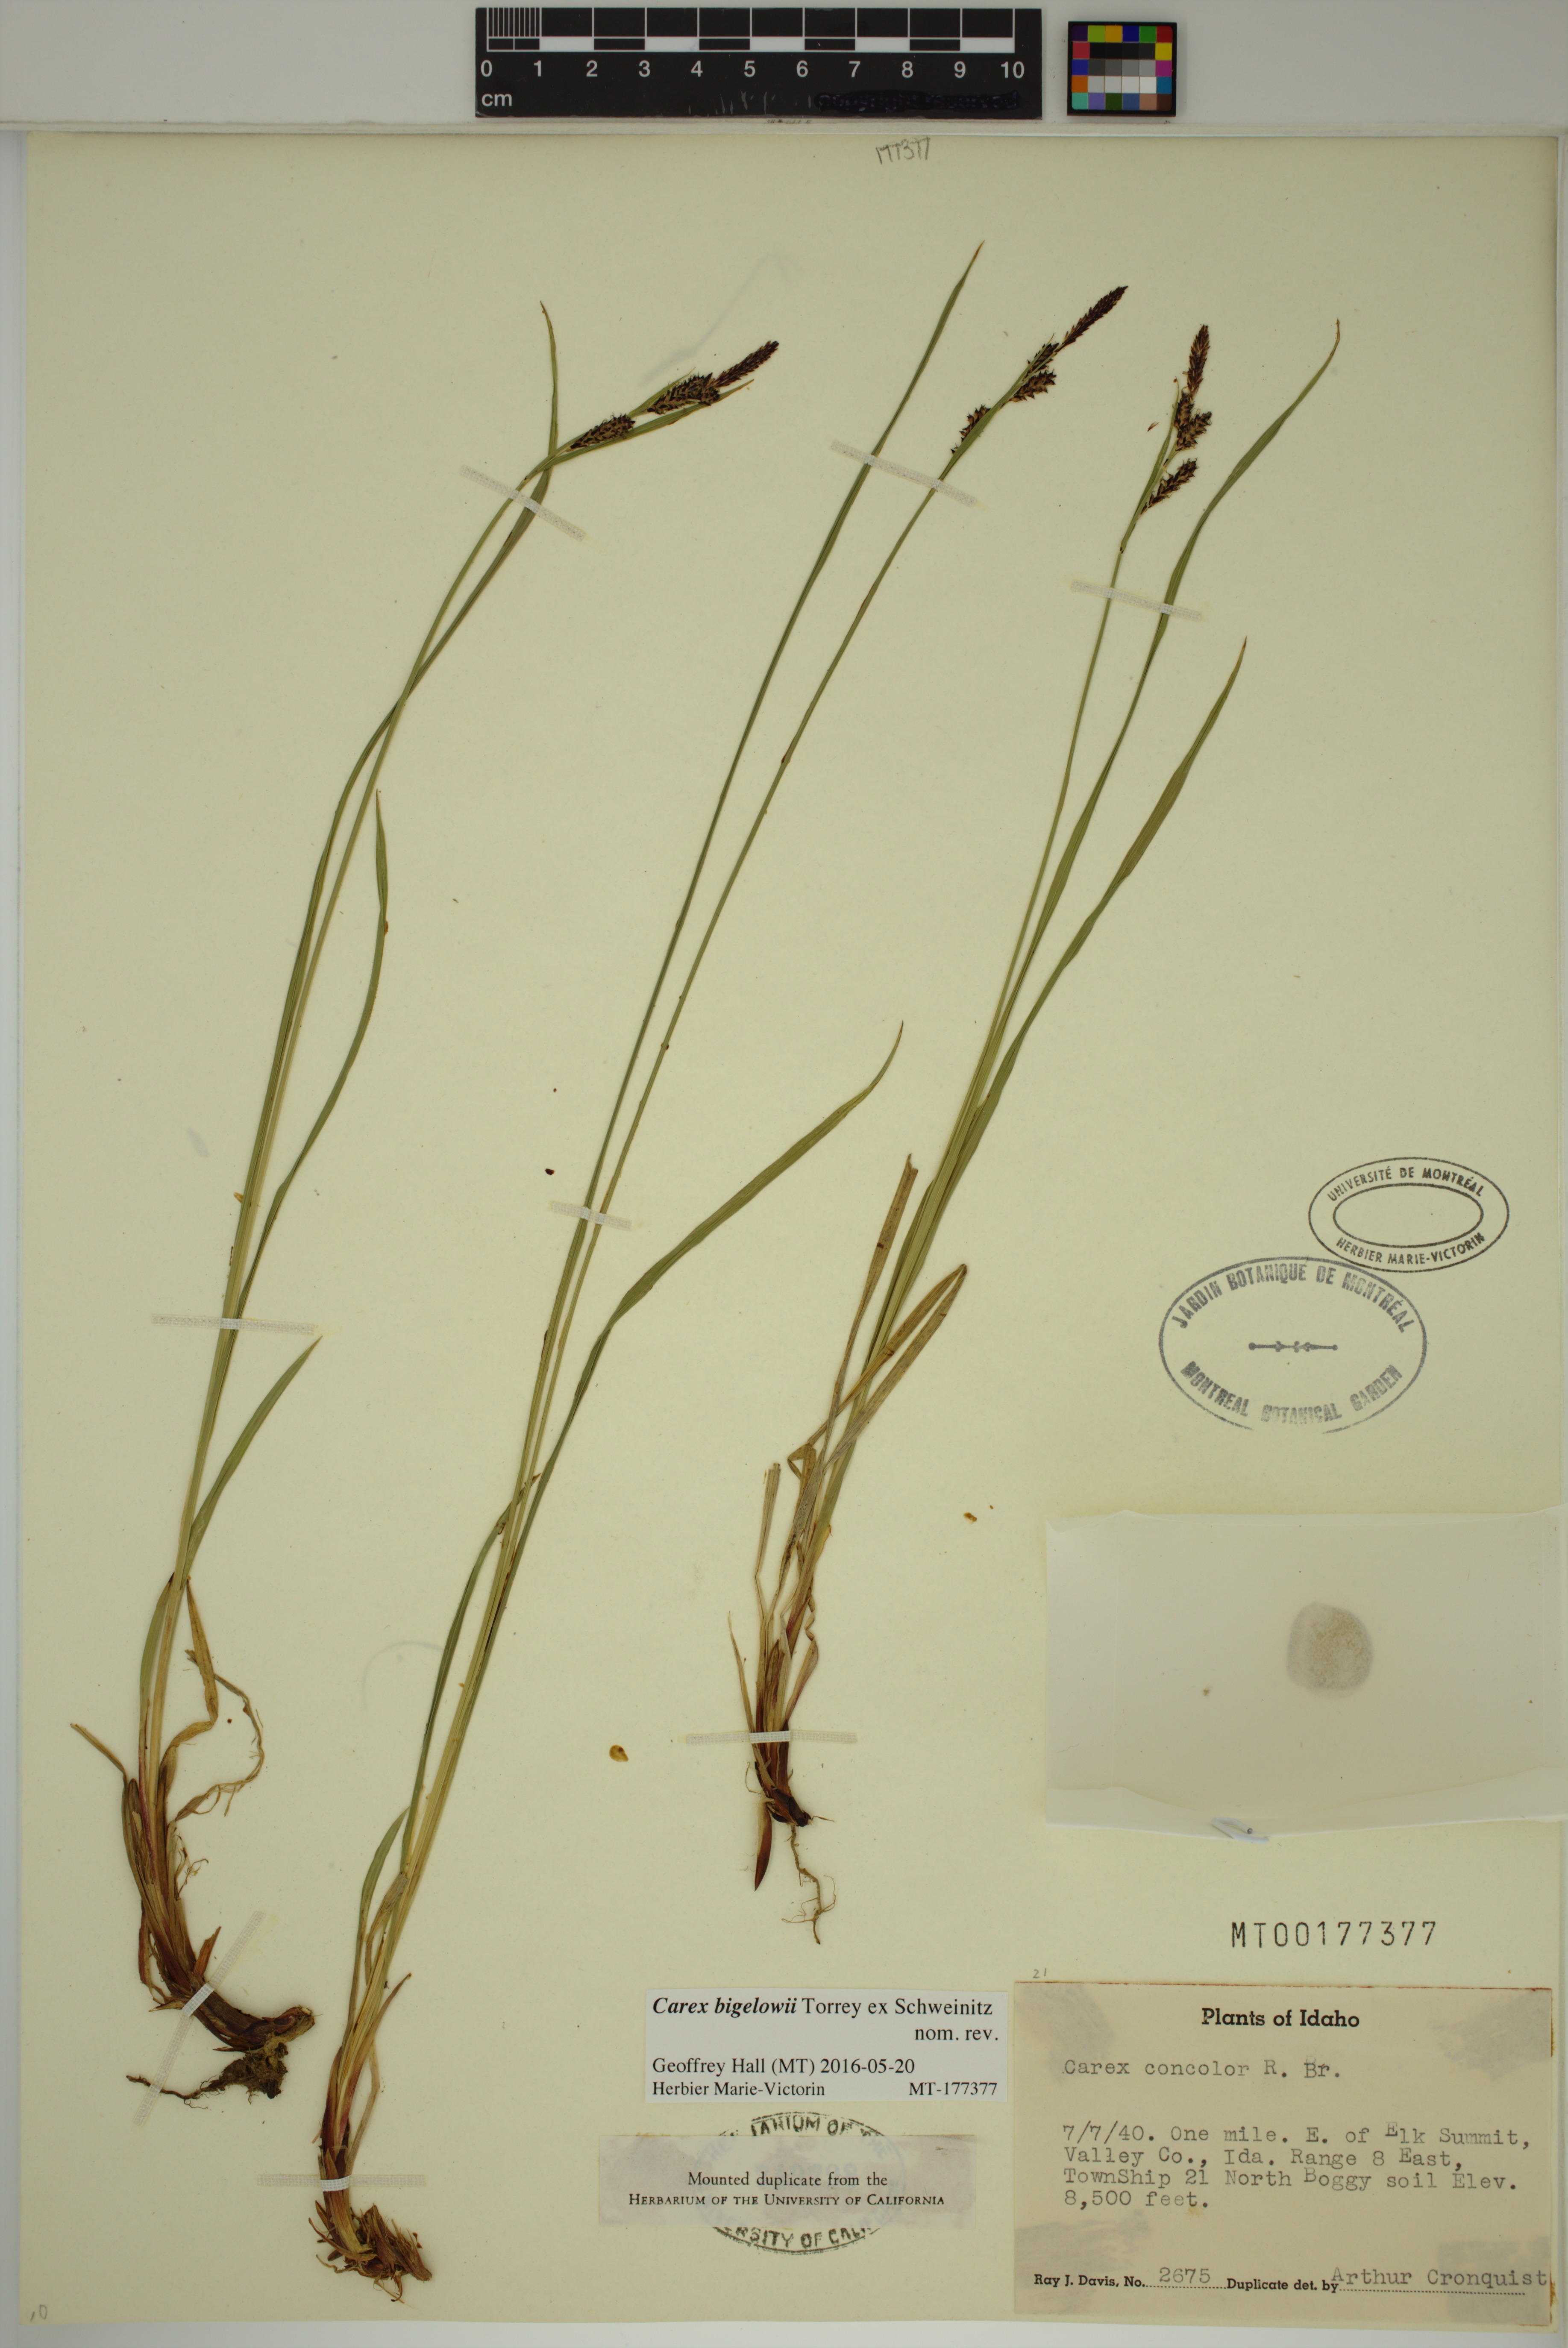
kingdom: Plantae
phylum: Tracheophyta
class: Liliopsida
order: Poales
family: Cyperaceae
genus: Carex
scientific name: Carex bigelowii
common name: Stiff sedge
